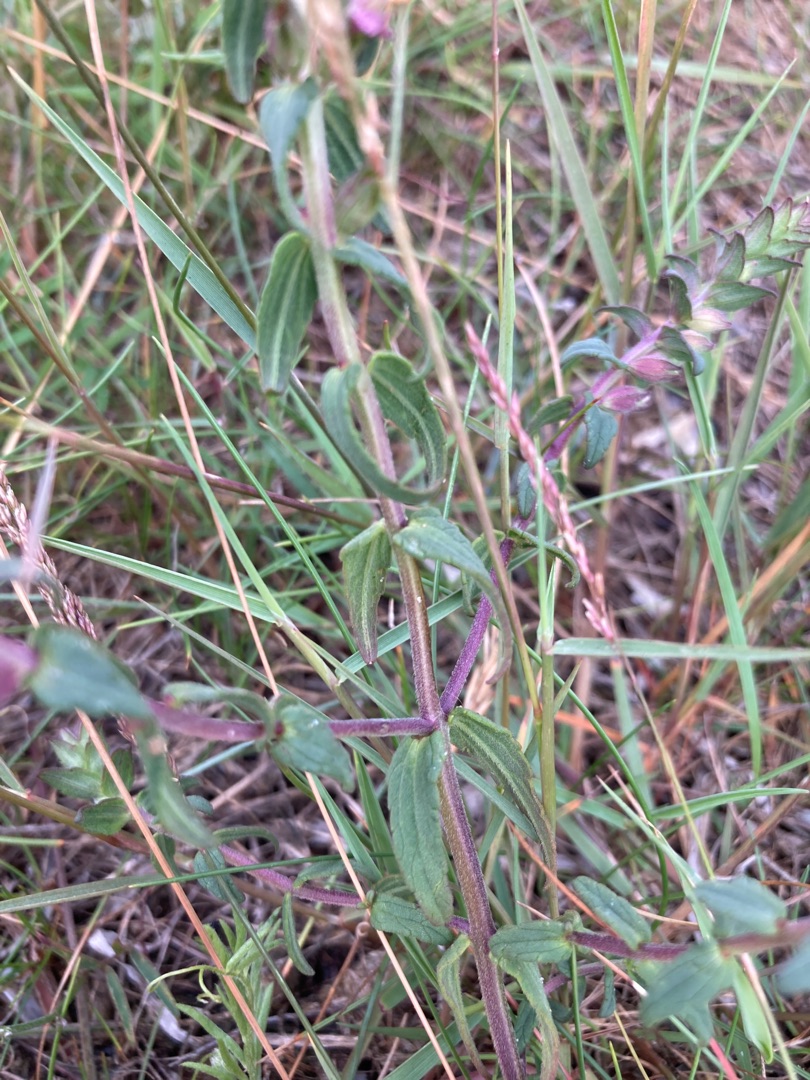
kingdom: Plantae
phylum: Tracheophyta
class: Magnoliopsida
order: Lamiales
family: Orobanchaceae
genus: Odontites
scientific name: Odontites
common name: Rødtopslægten
